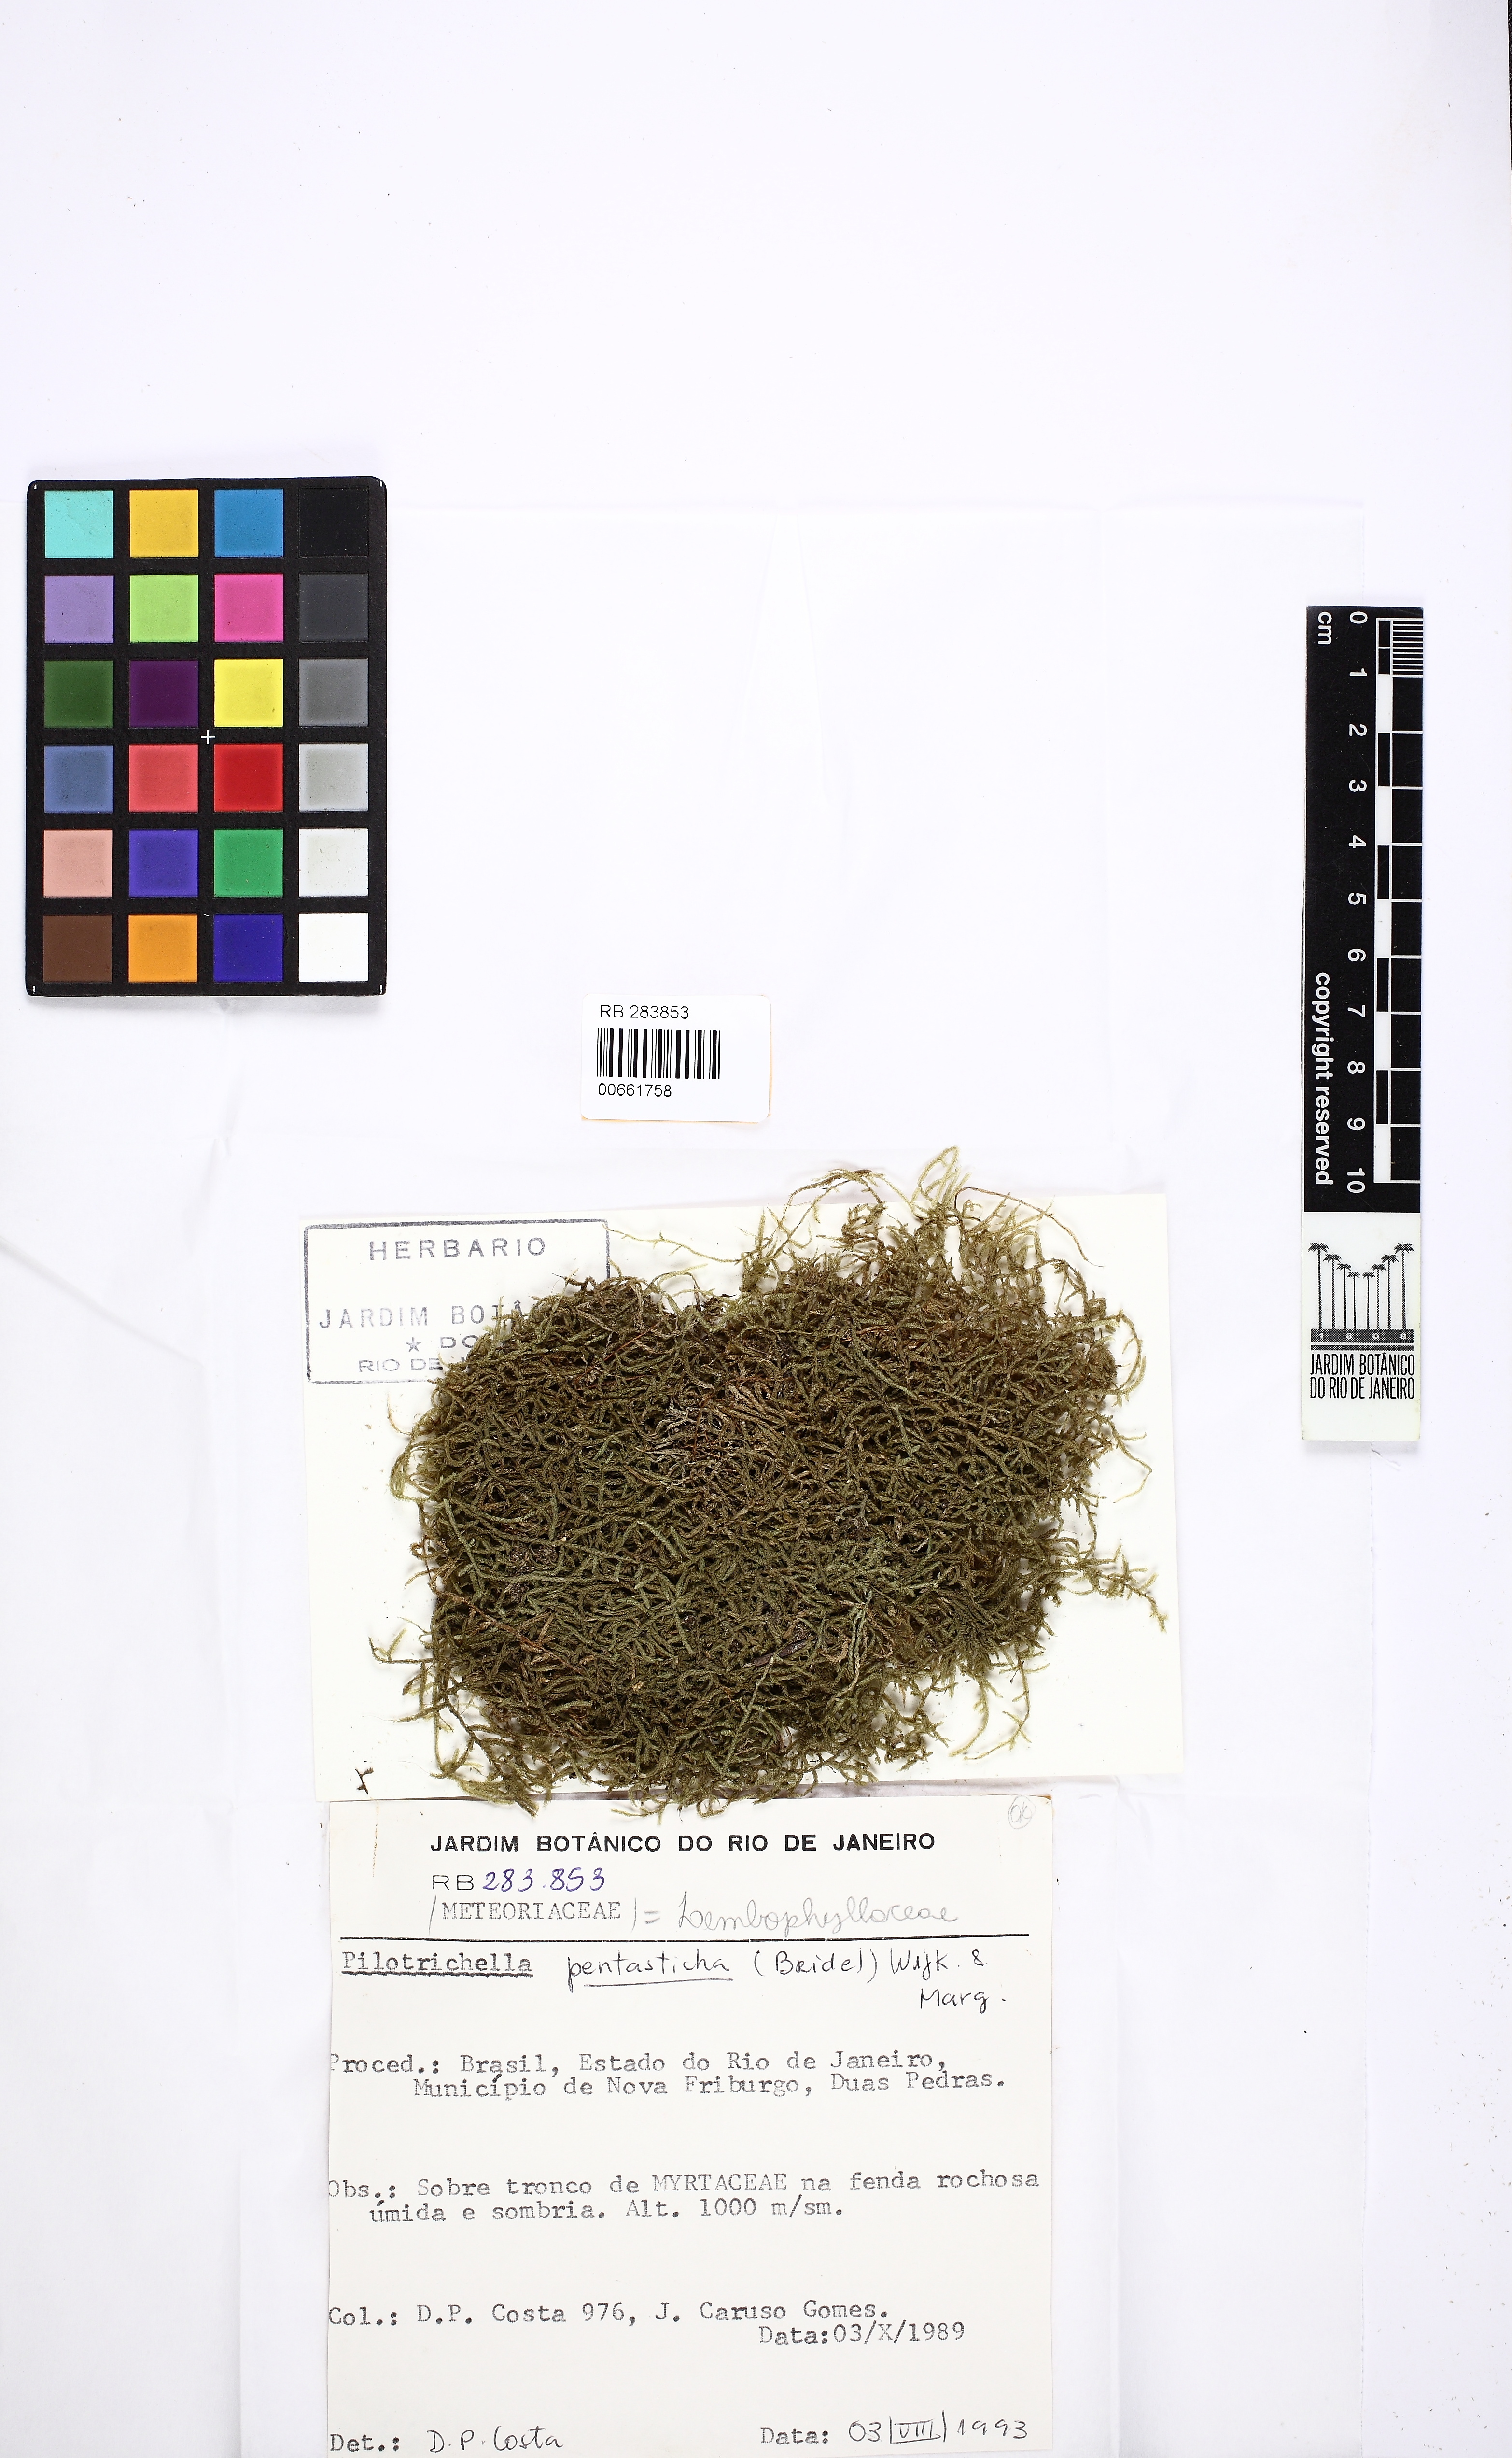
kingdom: Plantae
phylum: Bryophyta
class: Bryopsida
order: Hypnales
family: Pterobryaceae
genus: Orthostichidium
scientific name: Orthostichidium pentastichum
